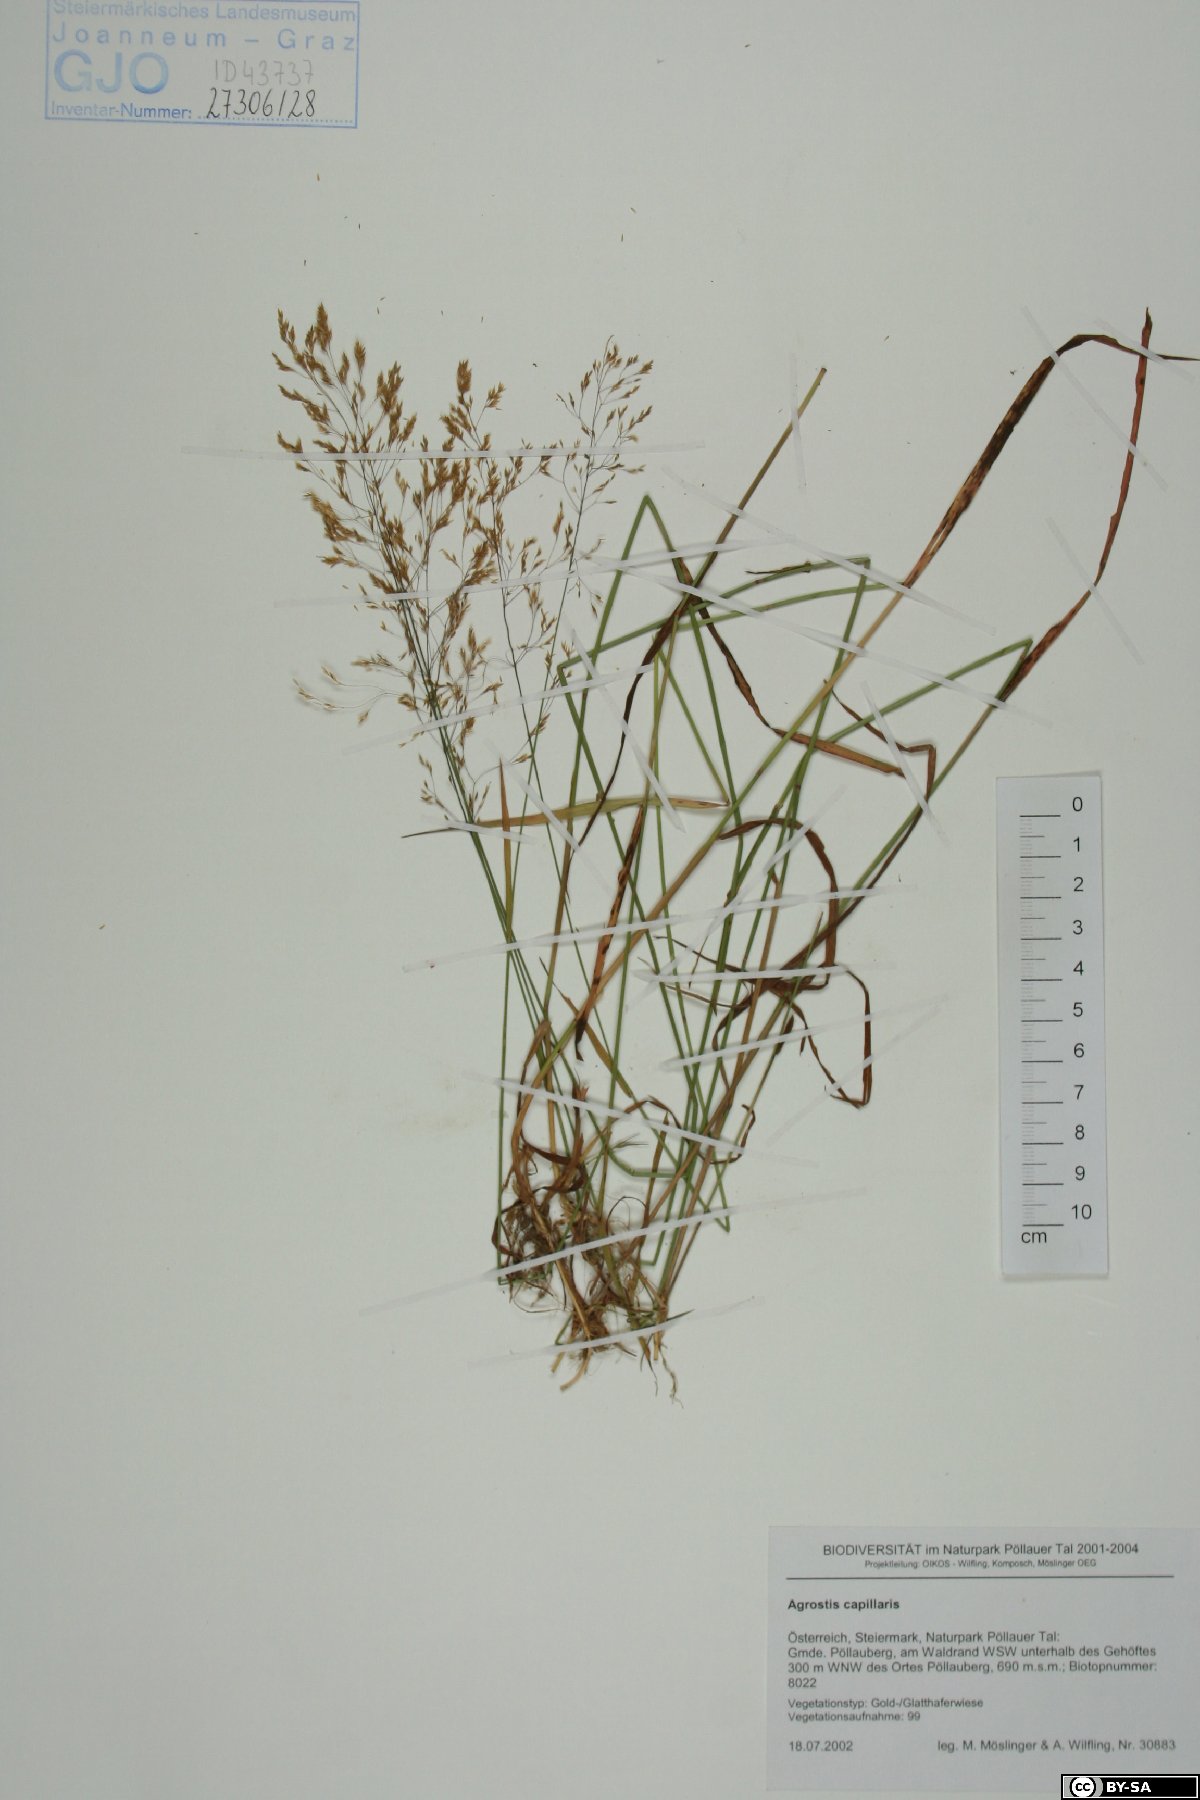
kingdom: Plantae
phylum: Tracheophyta
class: Liliopsida
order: Poales
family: Poaceae
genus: Agrostis
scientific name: Agrostis capillaris
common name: Colonial bentgrass
